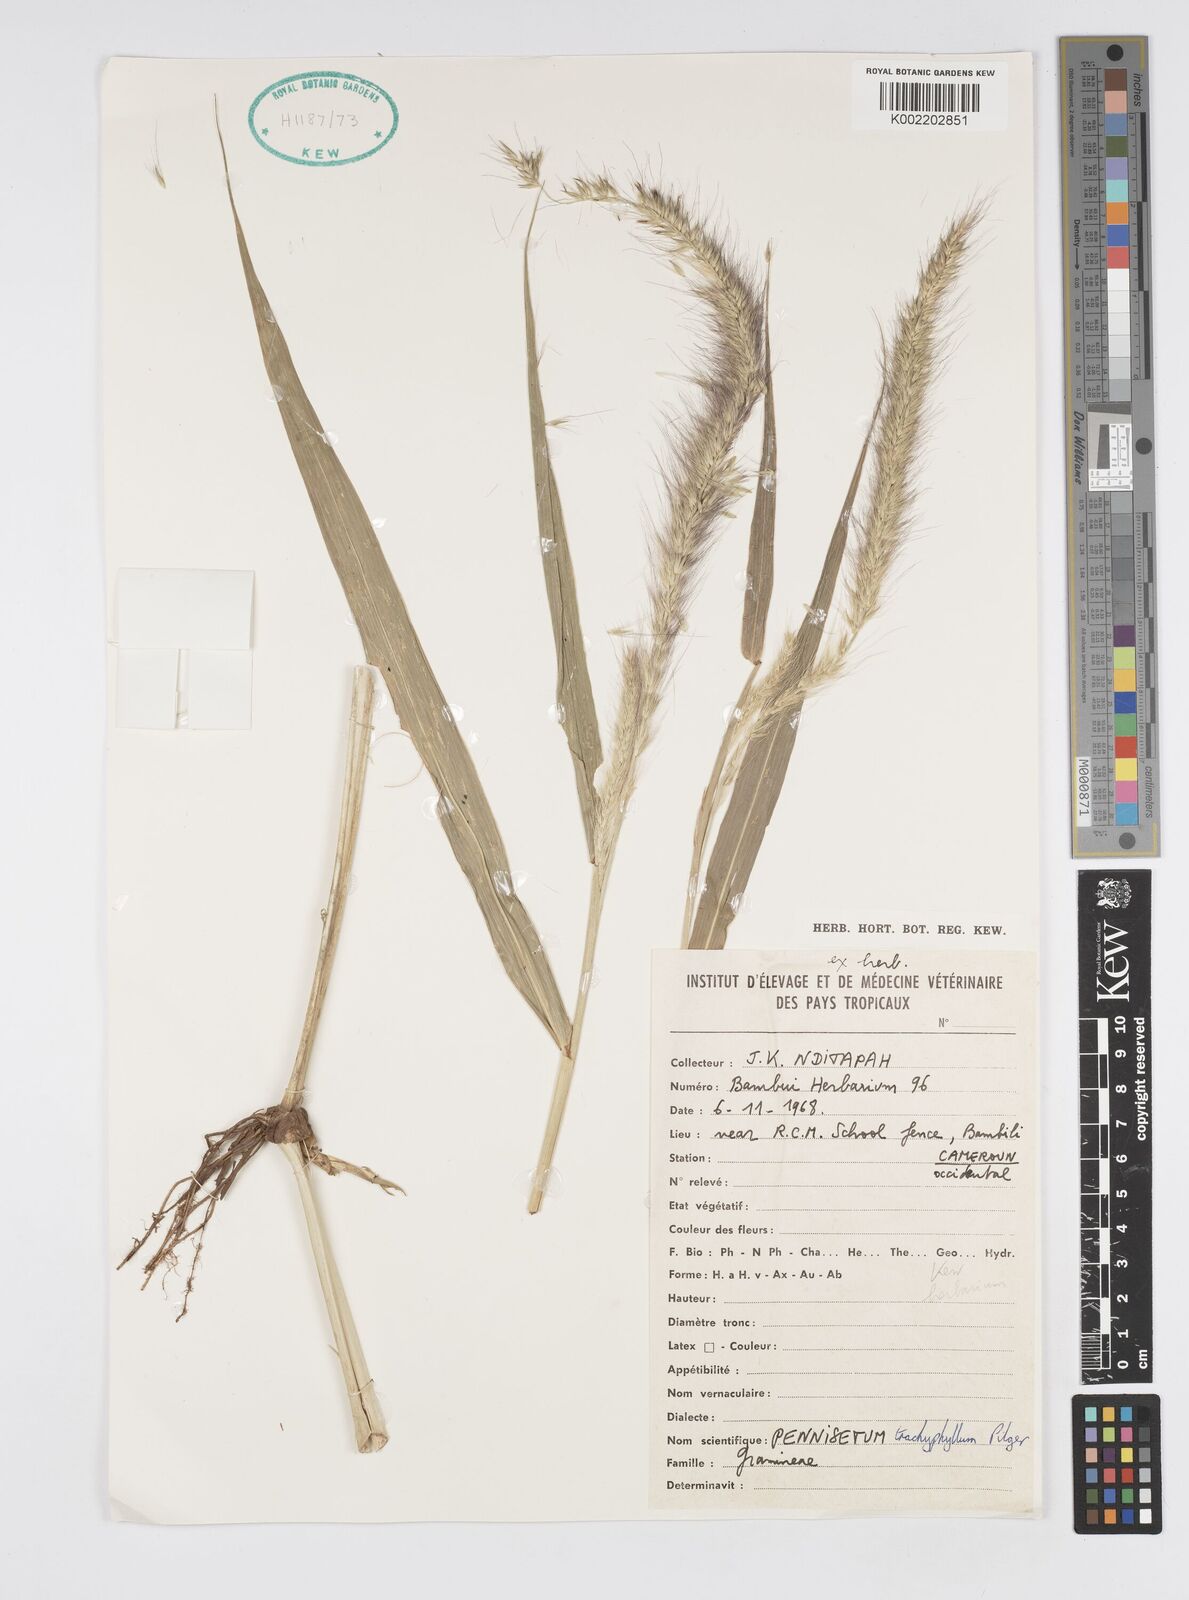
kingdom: Plantae
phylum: Tracheophyta
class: Liliopsida
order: Poales
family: Poaceae
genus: Cenchrus
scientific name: Cenchrus trachyphyllus
